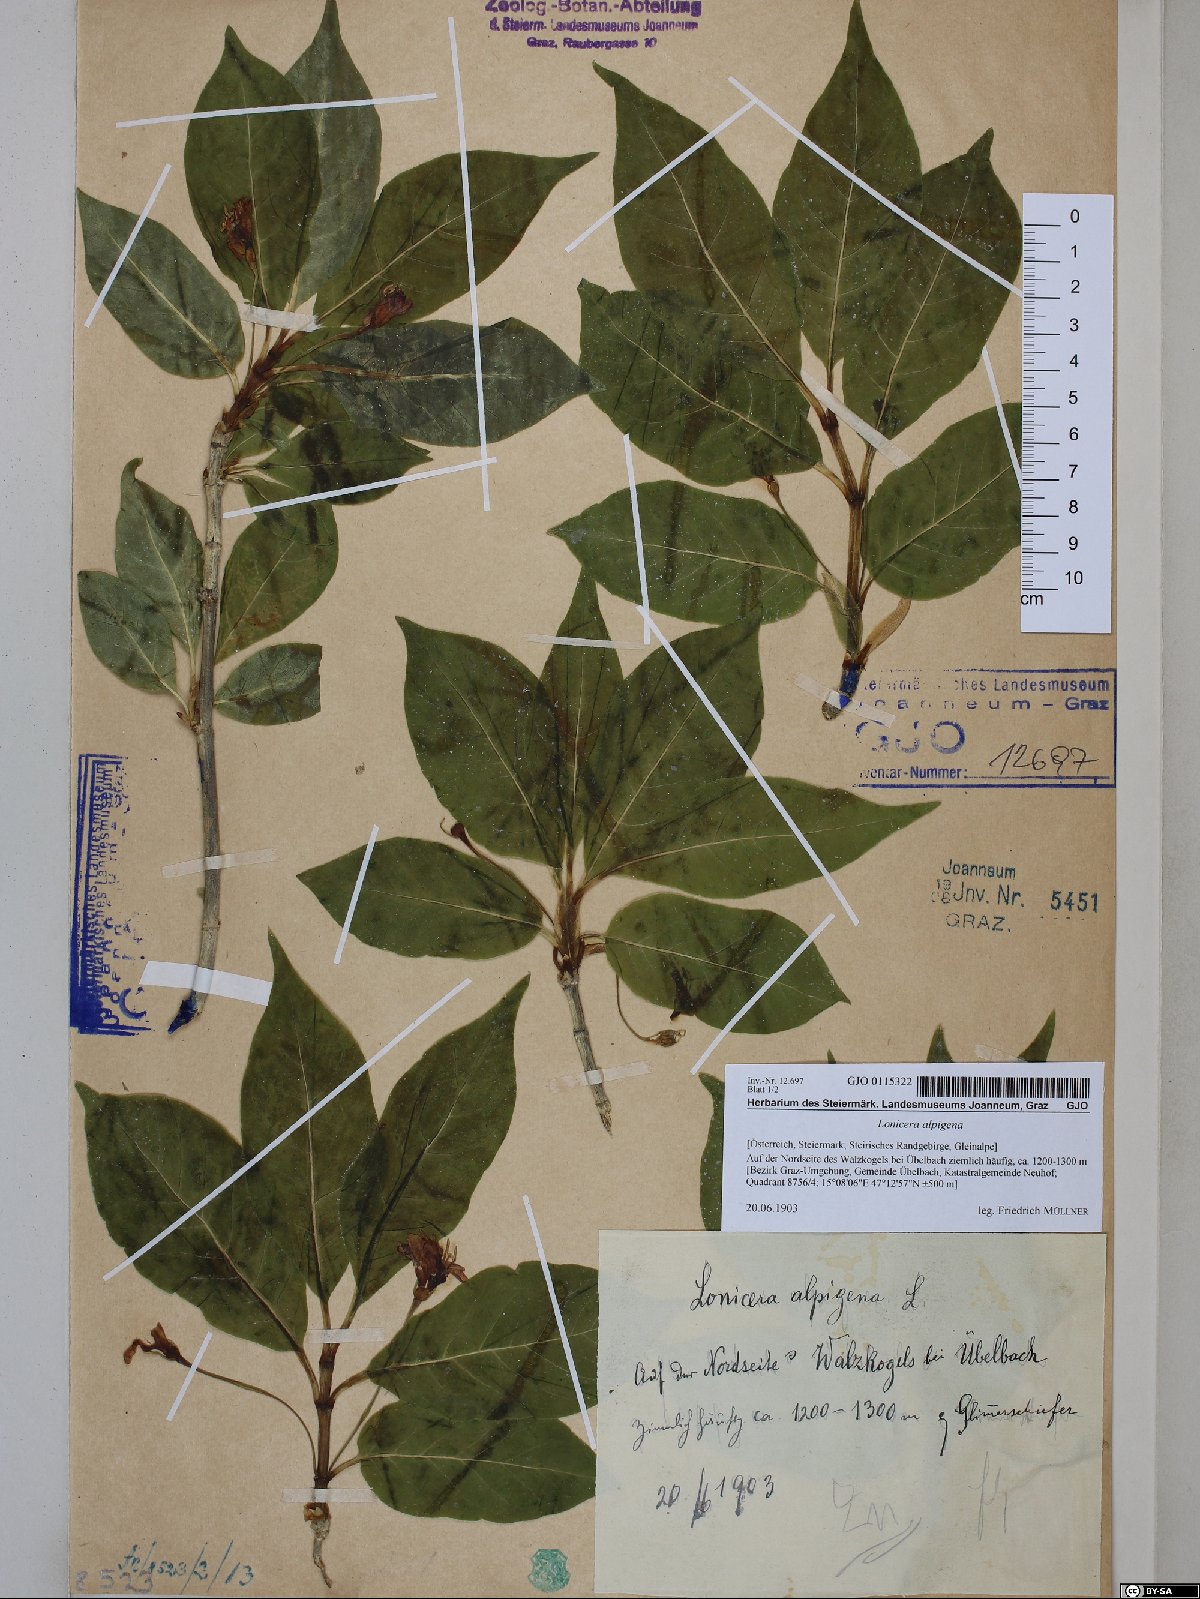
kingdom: Plantae
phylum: Tracheophyta
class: Magnoliopsida
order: Dipsacales
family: Caprifoliaceae
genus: Lonicera
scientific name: Lonicera alpigena
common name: Alpine honeysuckle
